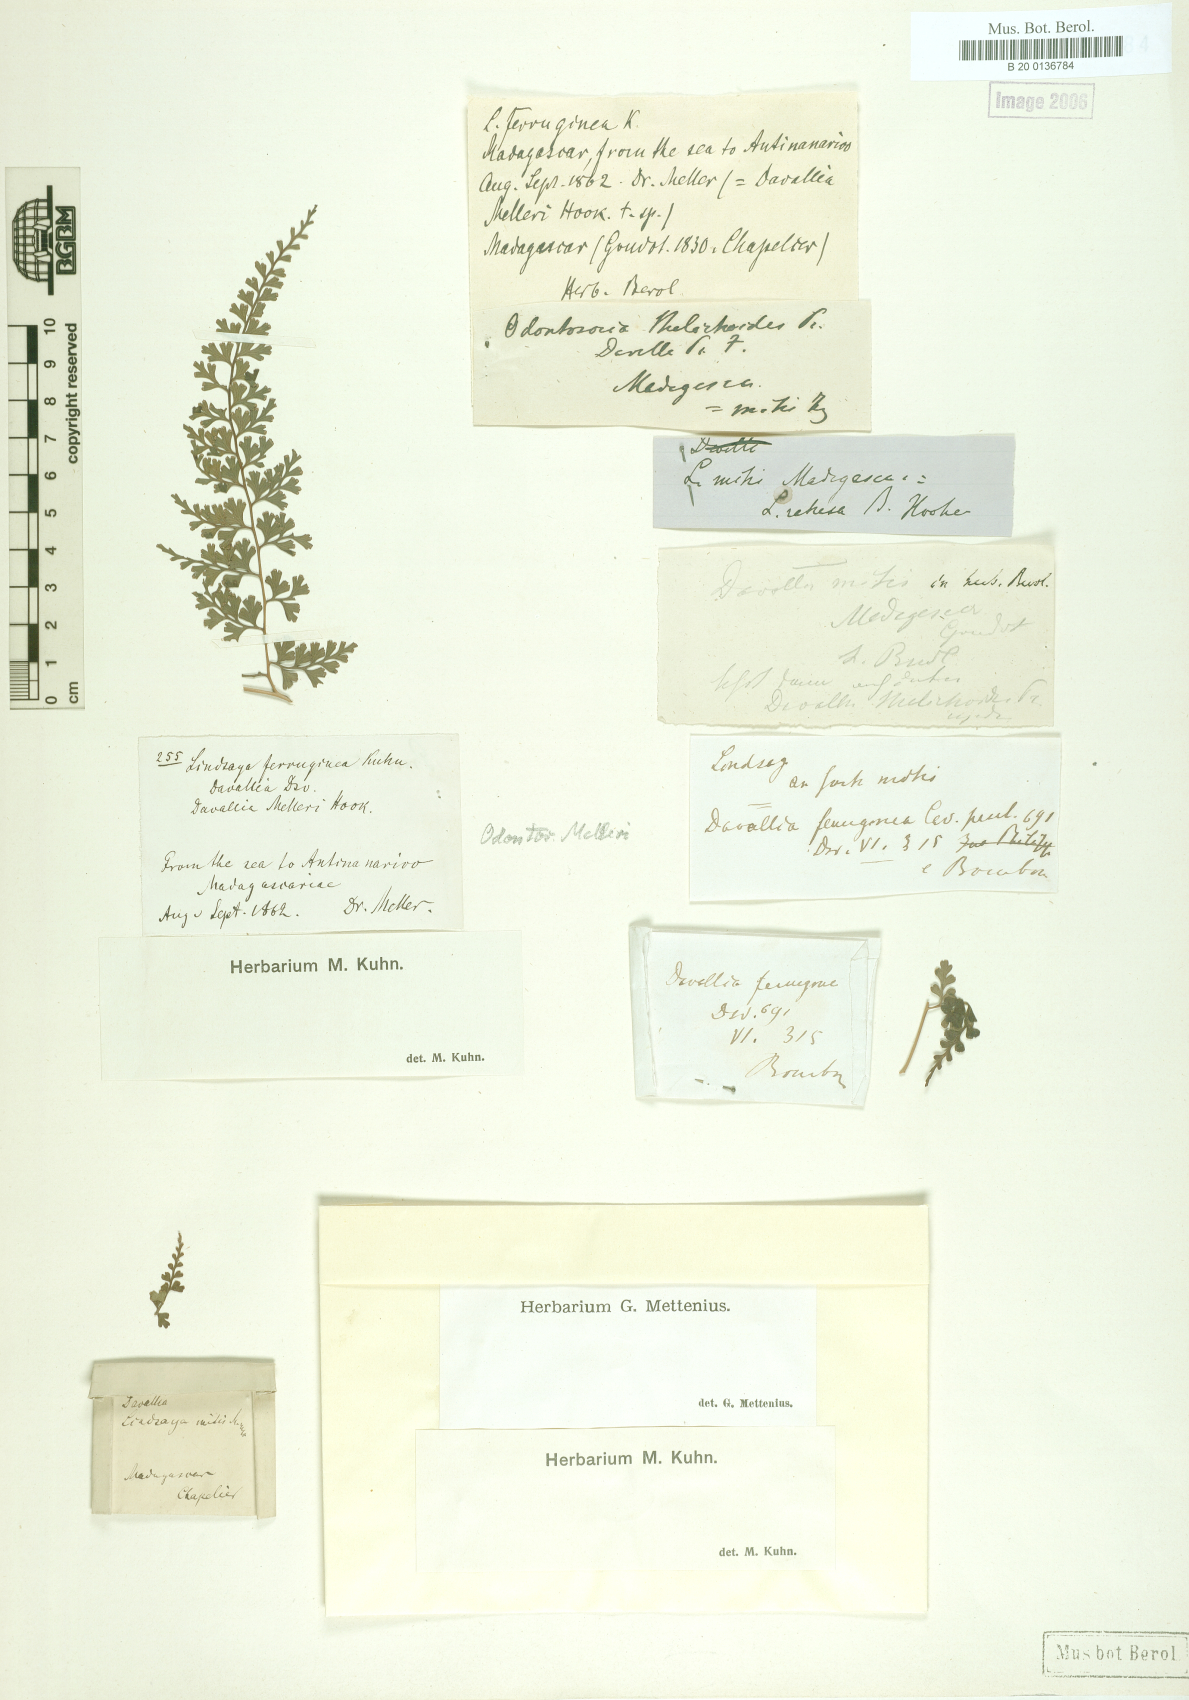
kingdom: Plantae
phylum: Tracheophyta
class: Polypodiopsida
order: Polypodiales
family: Lindsaeaceae
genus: Odontosoria
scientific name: Odontosoria melleri
